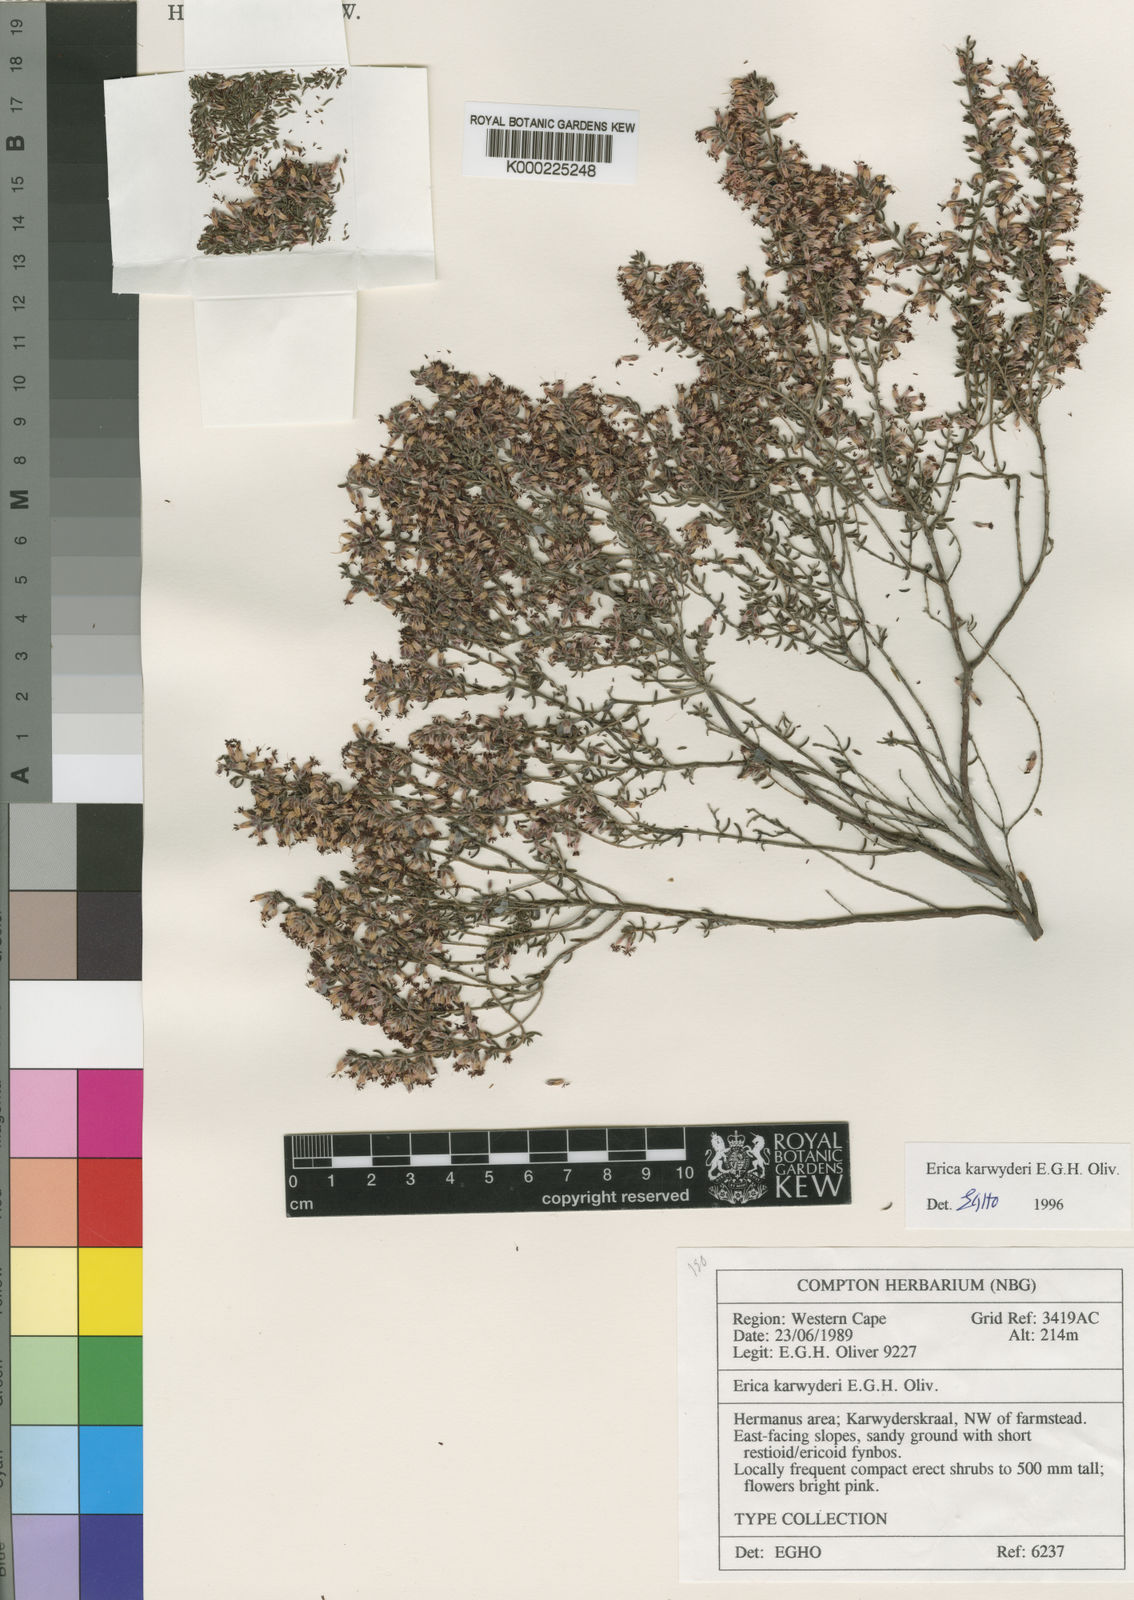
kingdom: Plantae
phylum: Tracheophyta
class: Magnoliopsida
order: Ericales
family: Ericaceae
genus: Erica
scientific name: Erica karwyderi
